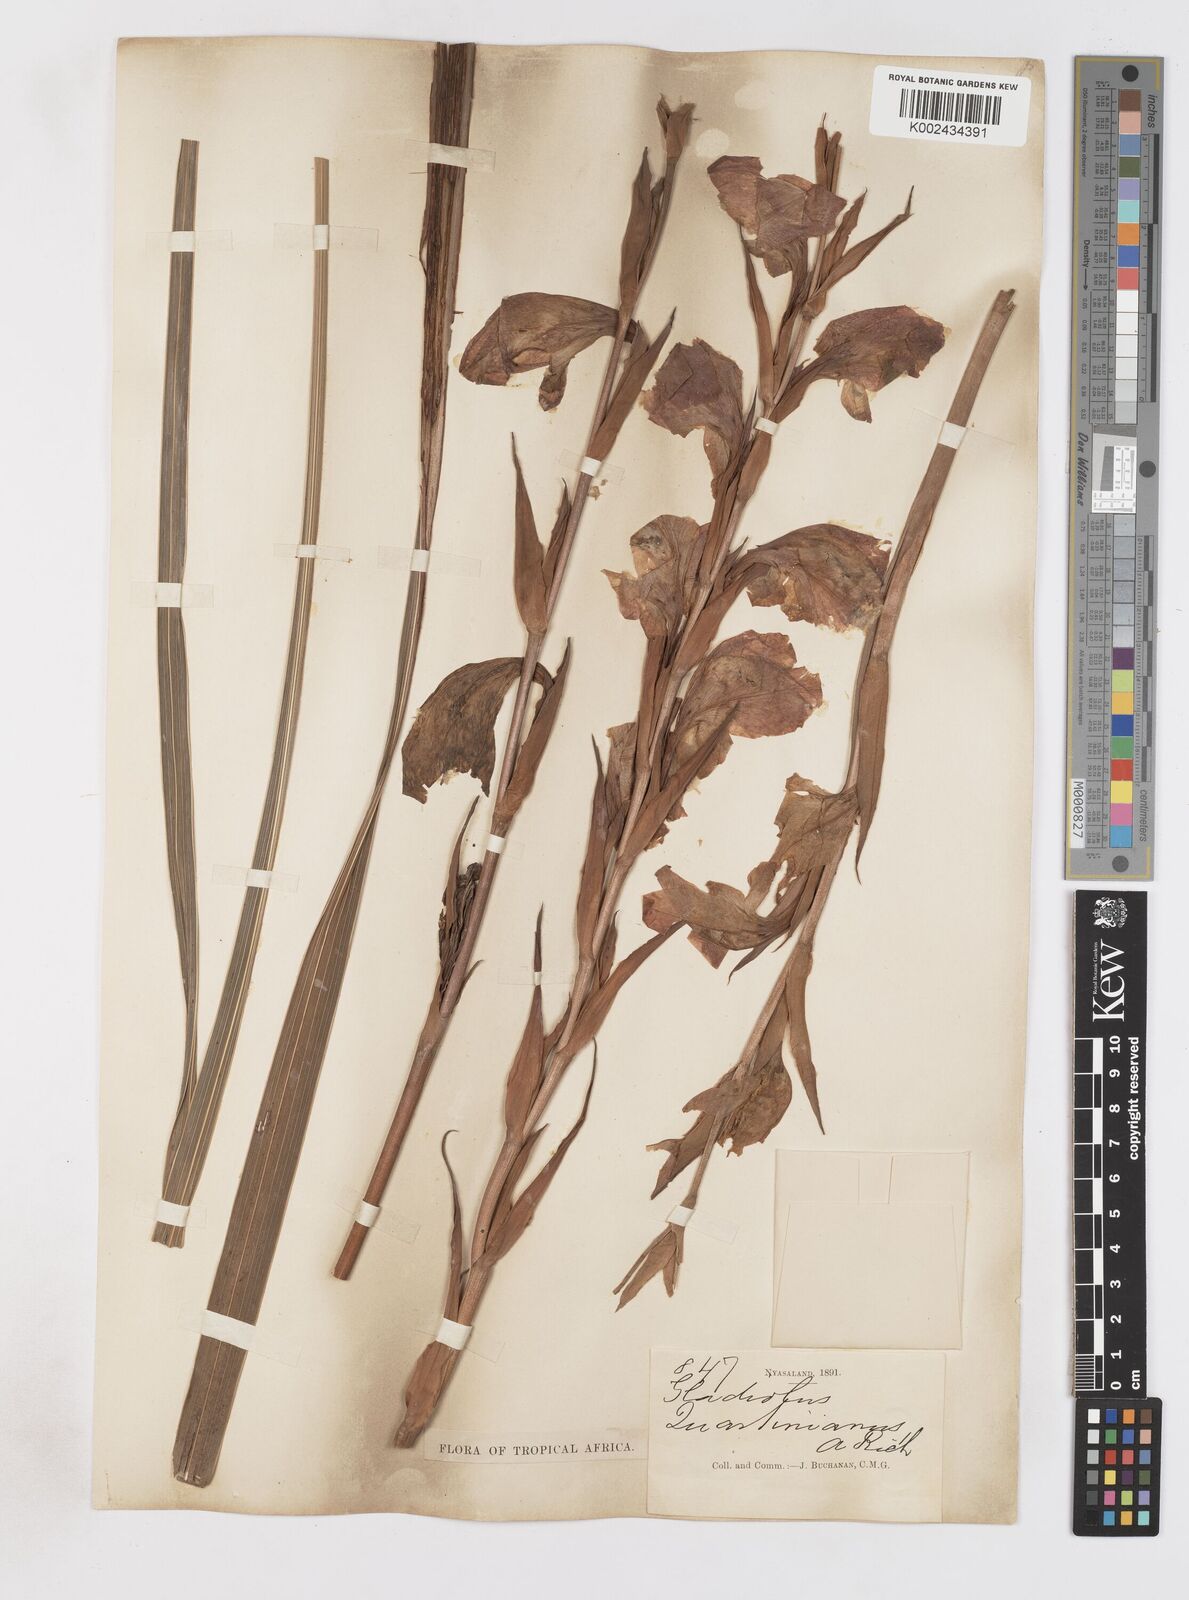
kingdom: Plantae
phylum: Tracheophyta
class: Liliopsida
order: Asparagales
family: Iridaceae
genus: Gladiolus
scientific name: Gladiolus dalenii
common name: Cornflag
